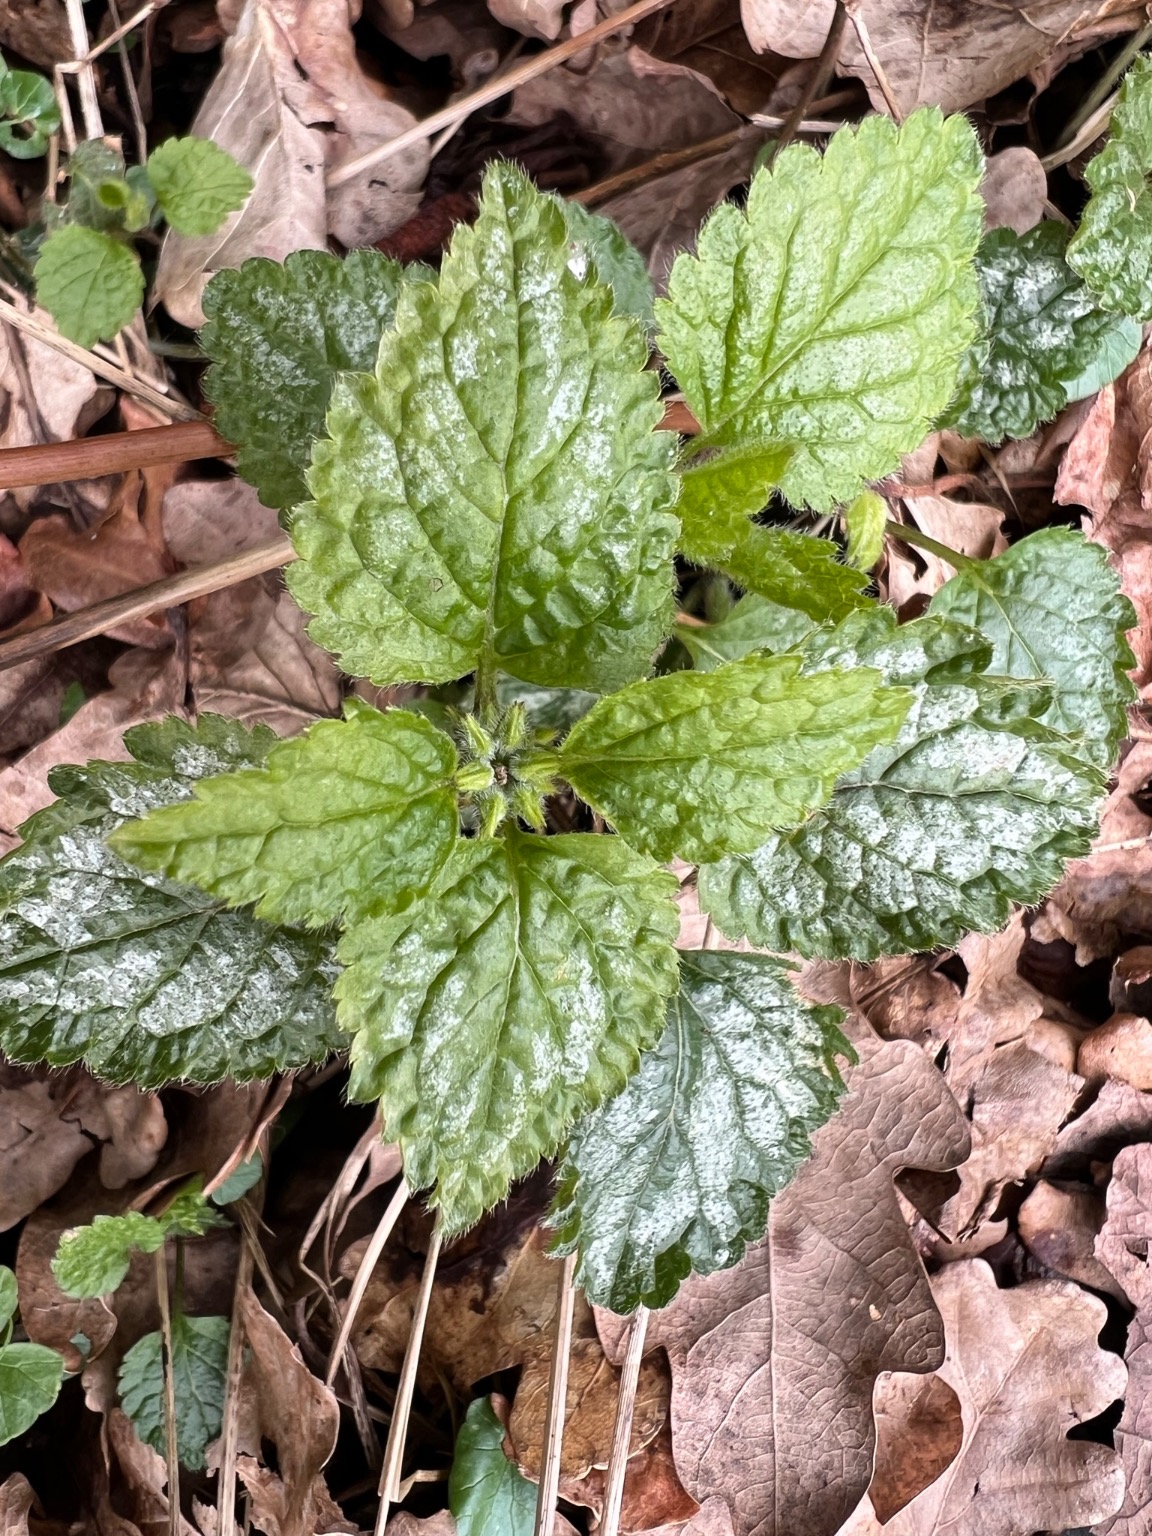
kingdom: Plantae
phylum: Tracheophyta
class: Magnoliopsida
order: Lamiales
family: Lamiaceae
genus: Lamium
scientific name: Lamium galeobdolon
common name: Have-guldnælde
